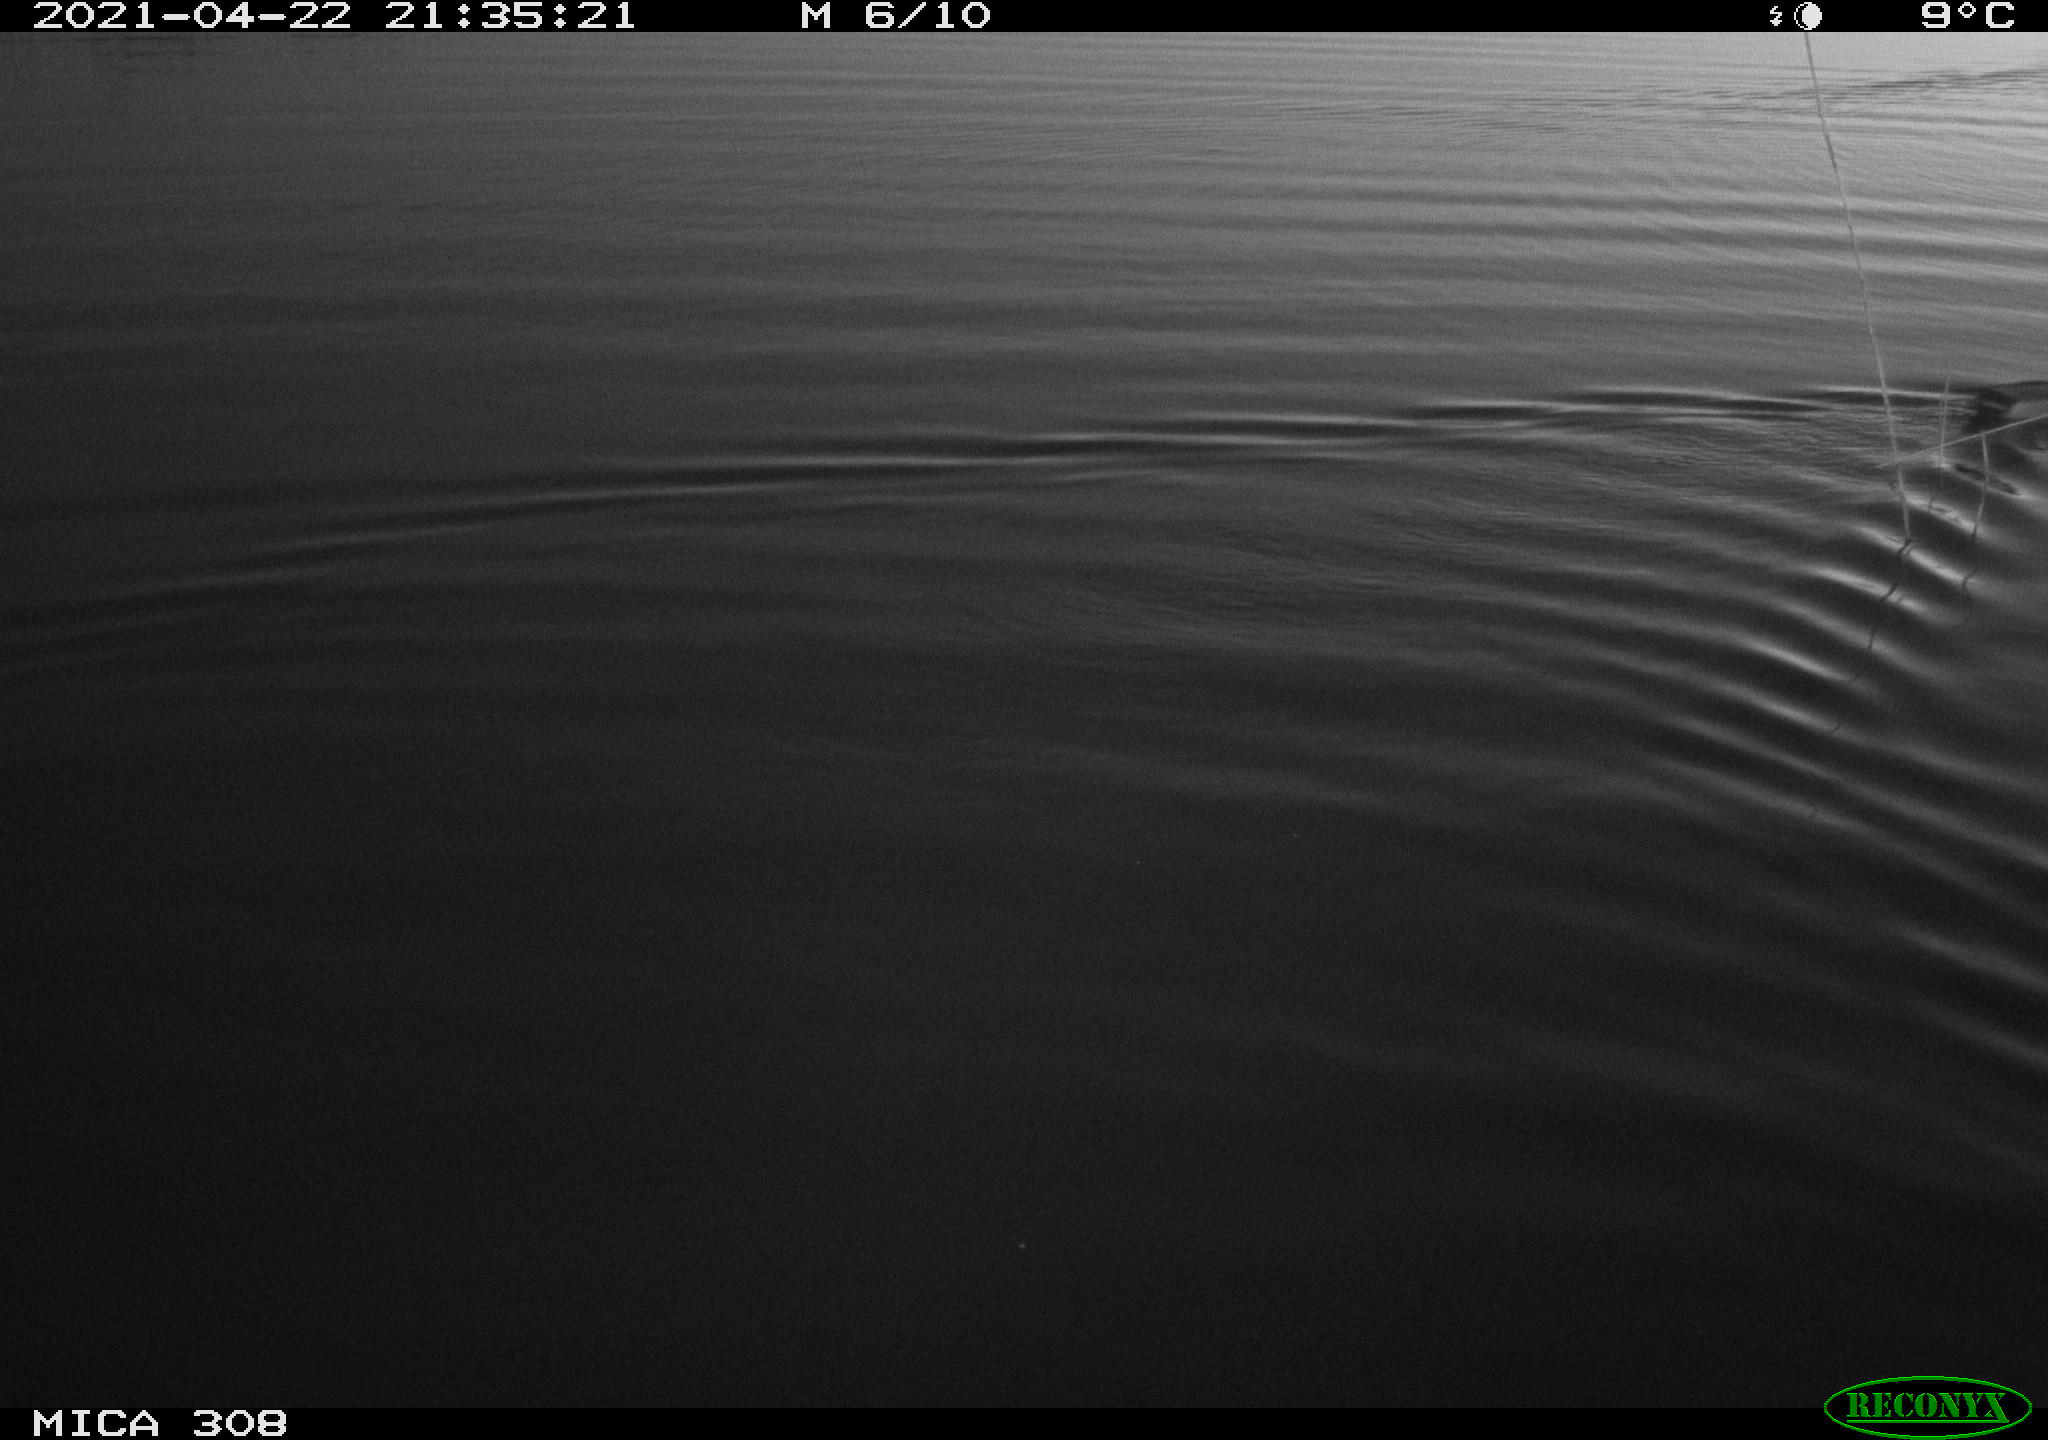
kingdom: Animalia
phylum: Chordata
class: Aves
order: Anseriformes
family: Anatidae
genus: Anas
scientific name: Anas platyrhynchos
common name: Mallard
